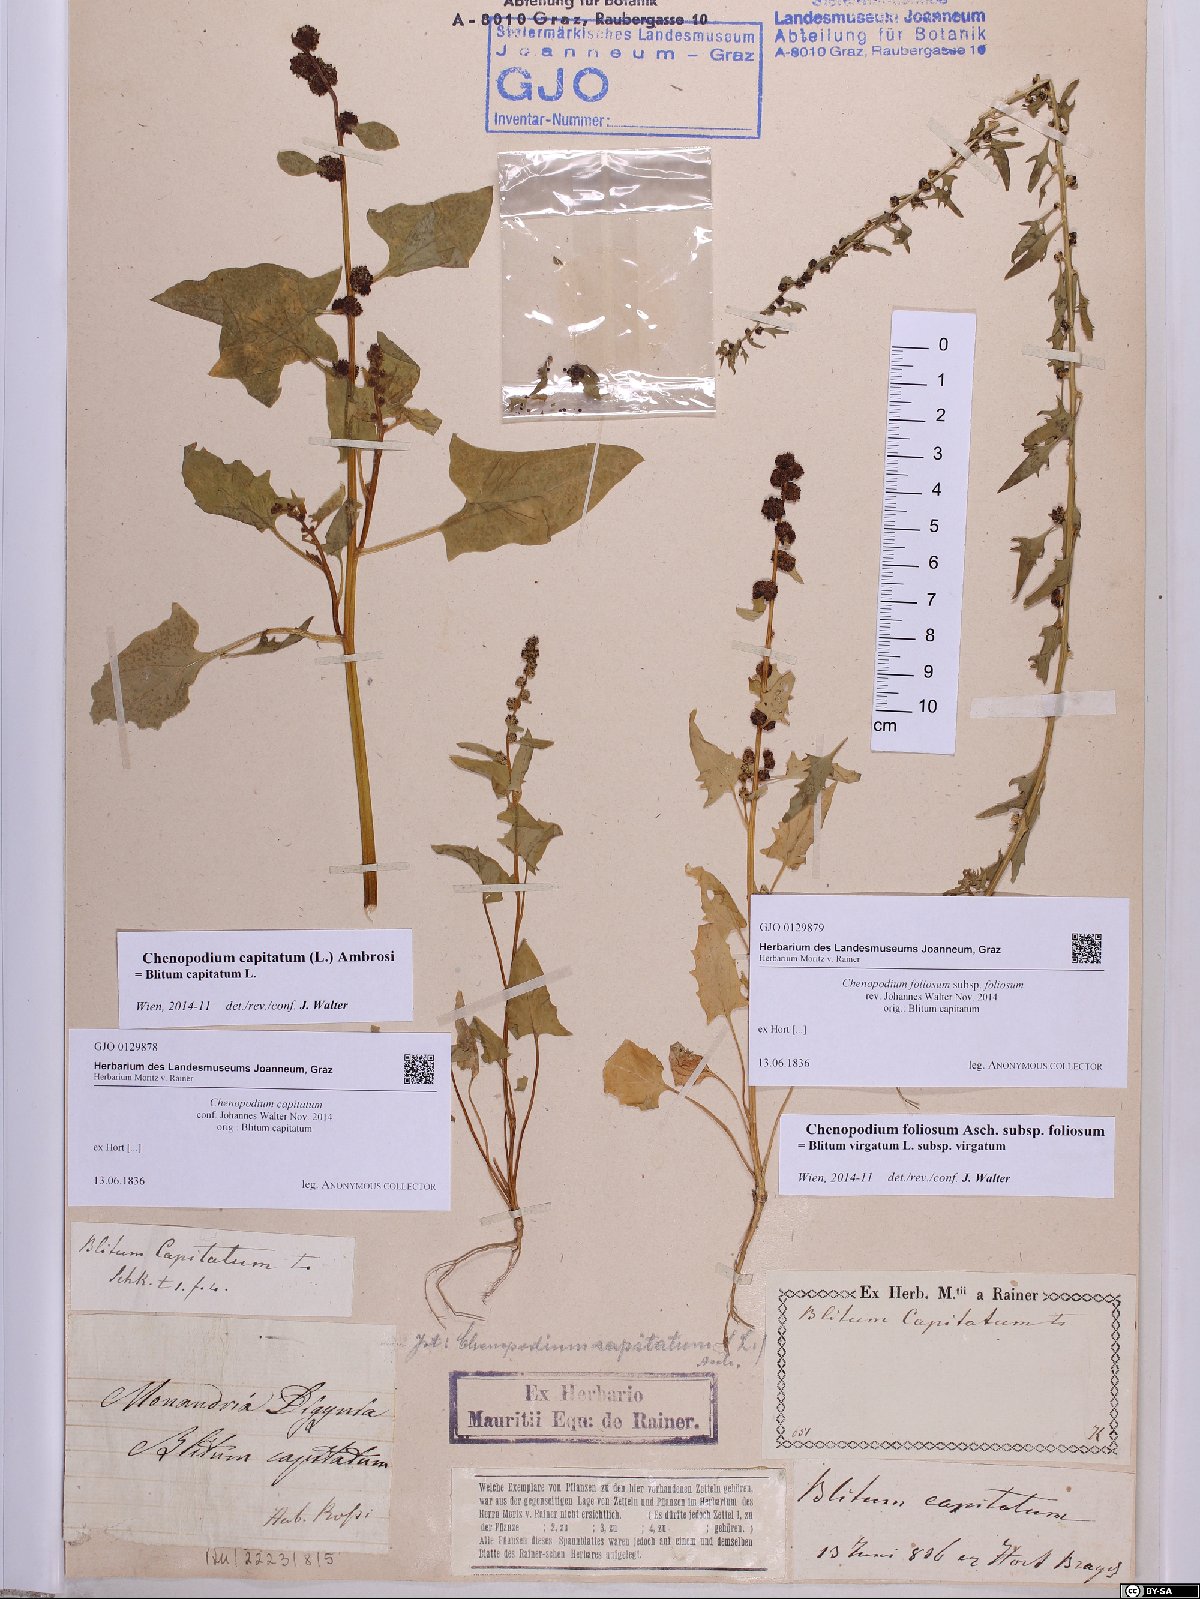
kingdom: Plantae
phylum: Tracheophyta
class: Magnoliopsida
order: Caryophyllales
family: Amaranthaceae
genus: Blitum
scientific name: Blitum capitatum
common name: Strawberry-blight
